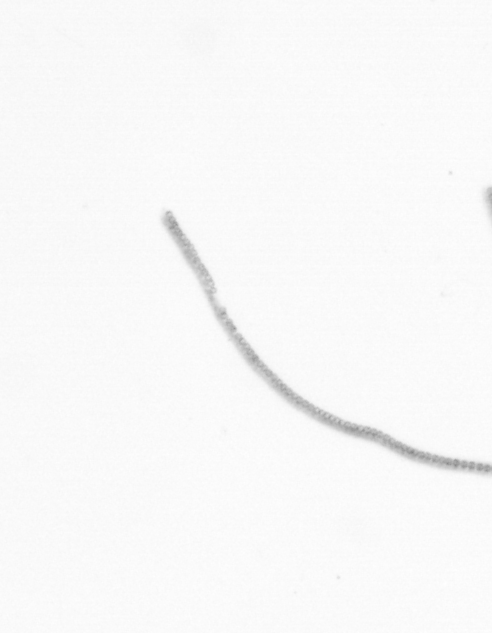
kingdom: Chromista
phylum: Ochrophyta
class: Bacillariophyceae
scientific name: Bacillariophyceae
